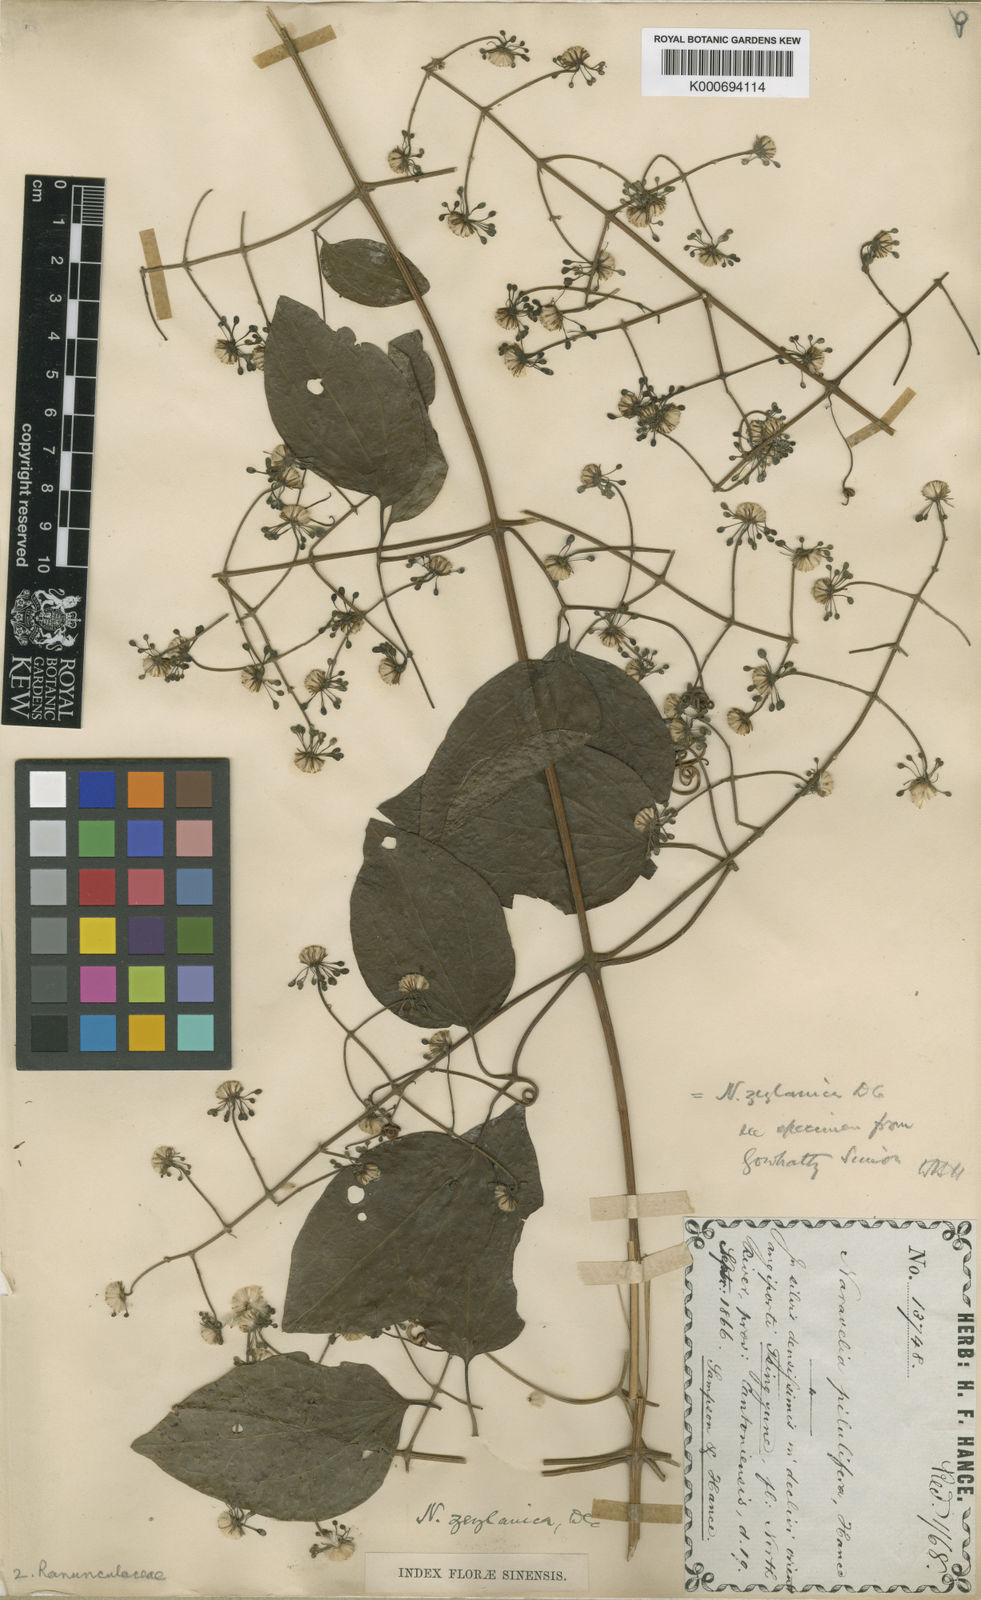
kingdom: Plantae
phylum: Tracheophyta
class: Magnoliopsida
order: Ranunculales
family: Ranunculaceae
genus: Clematis
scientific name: Clematis pilulifera
